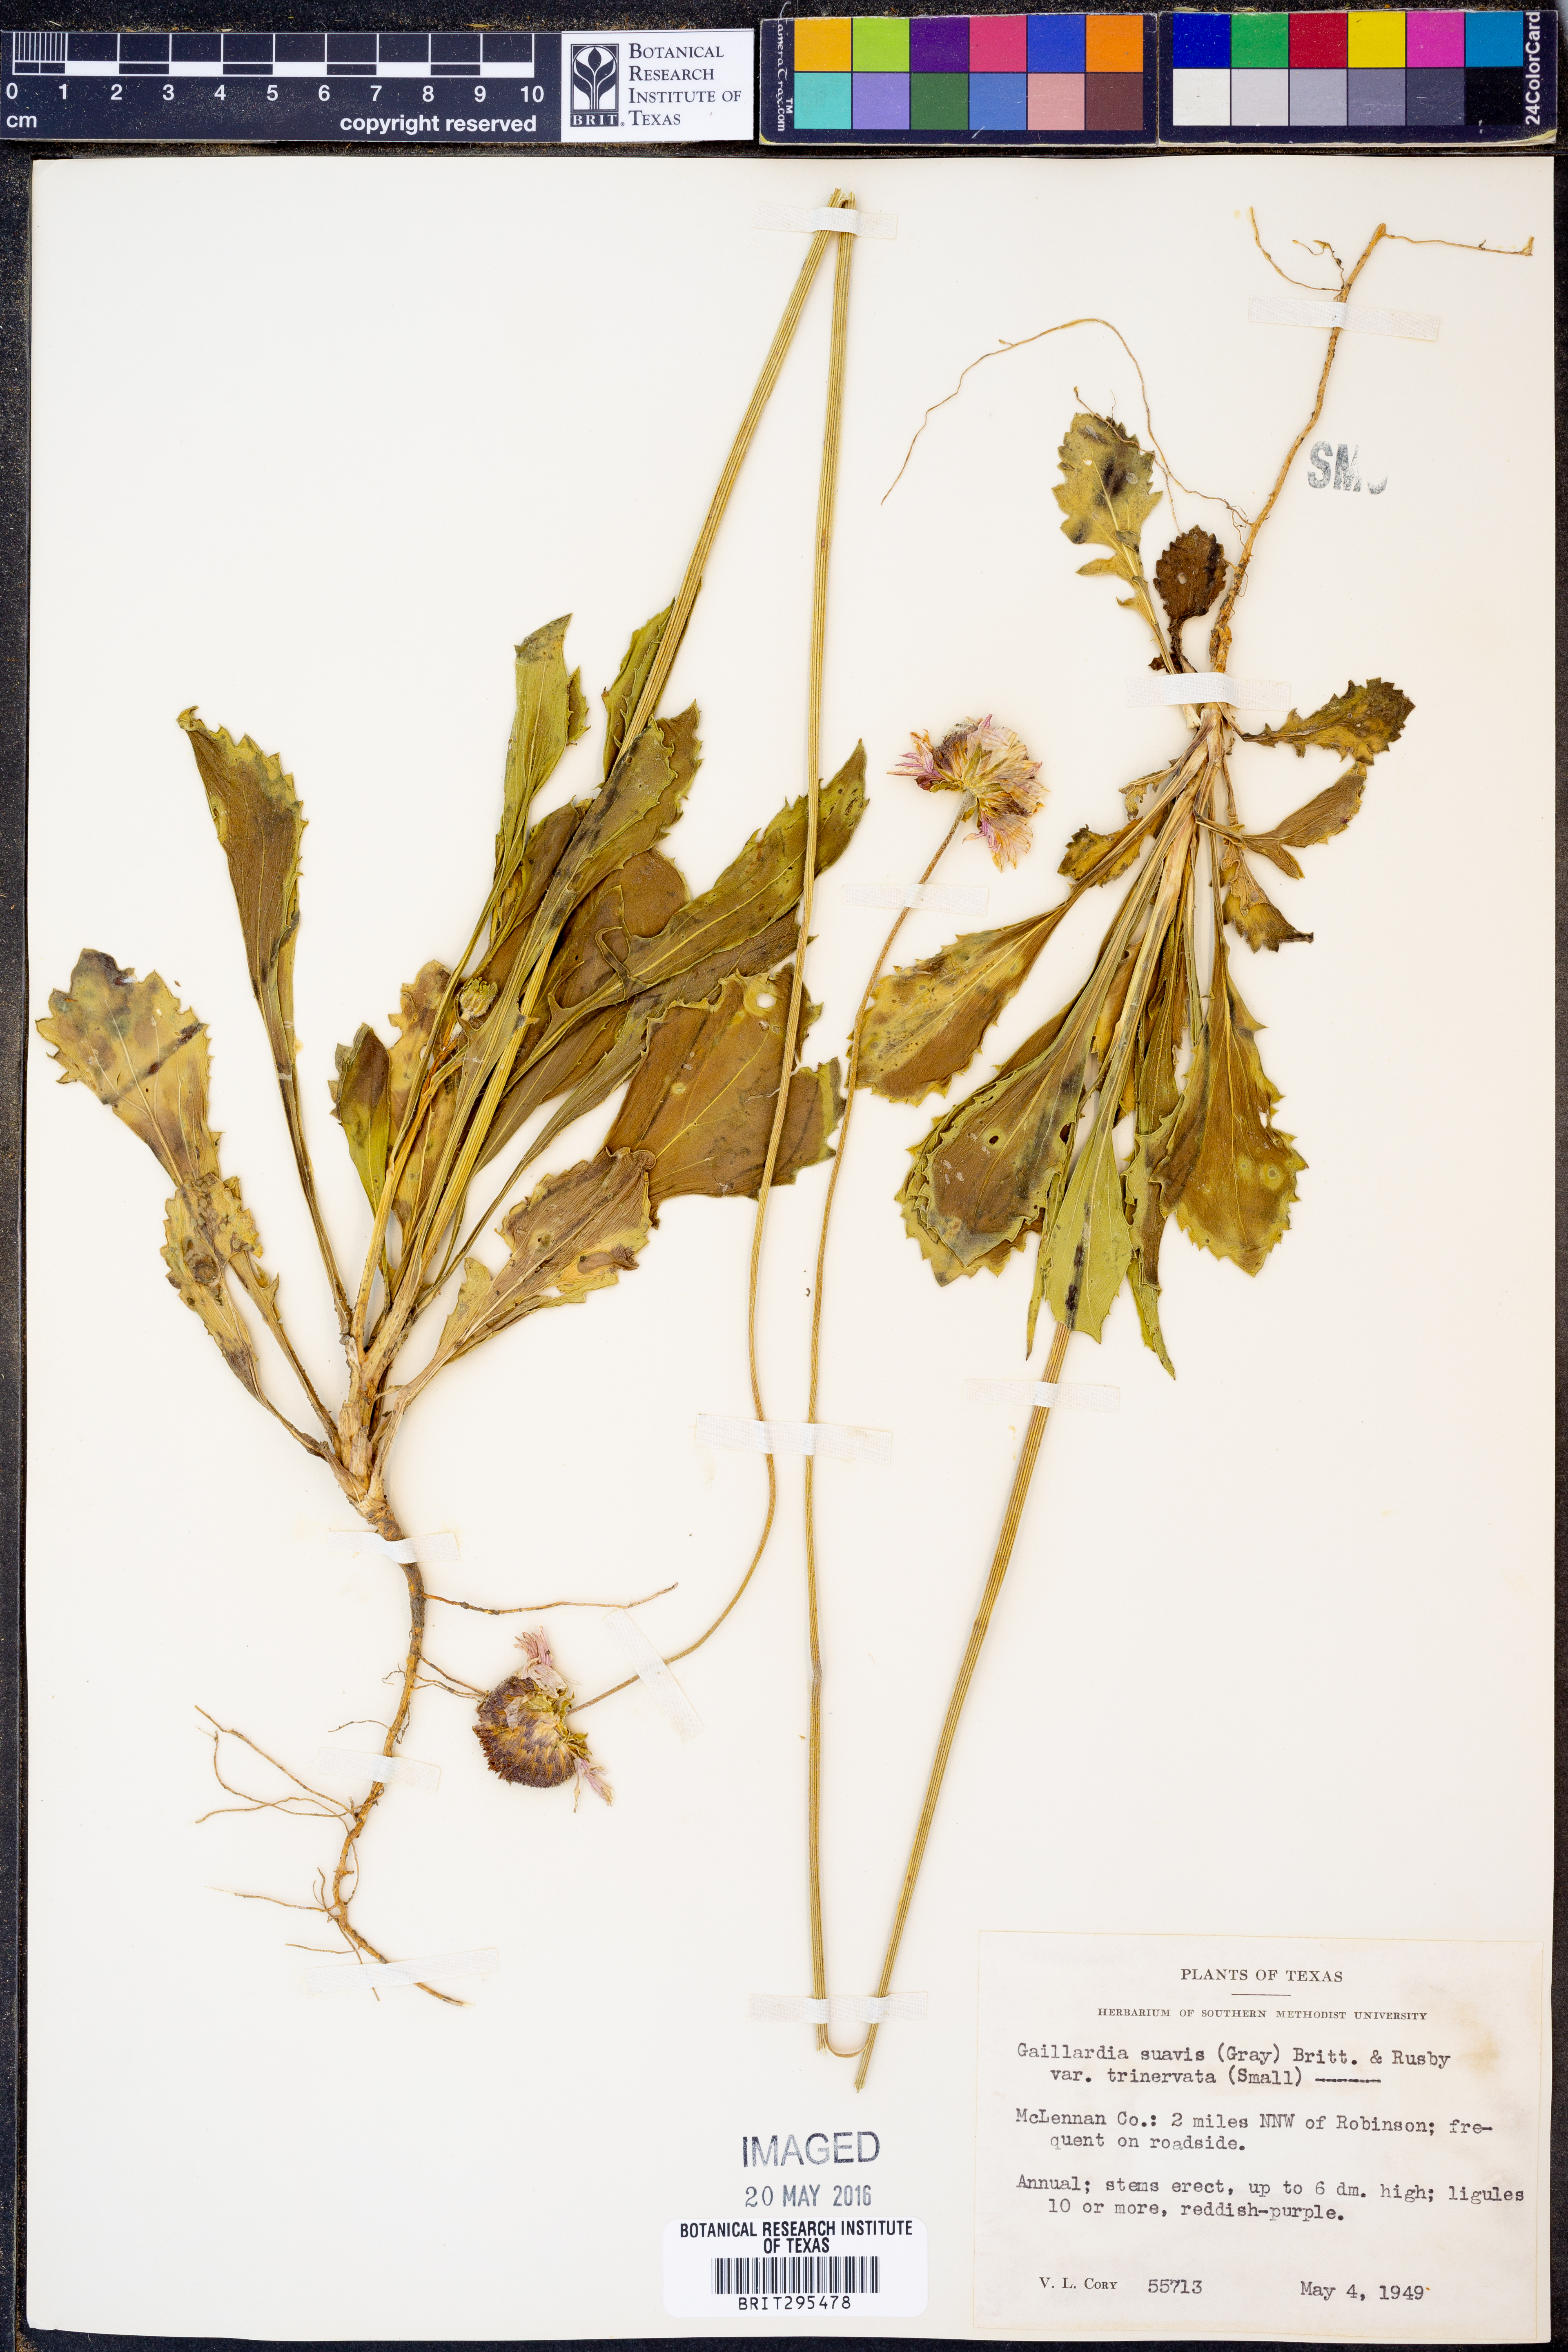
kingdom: Plantae
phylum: Tracheophyta
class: Magnoliopsida
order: Asterales
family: Asteraceae
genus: Gaillardia
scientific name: Gaillardia suavis
